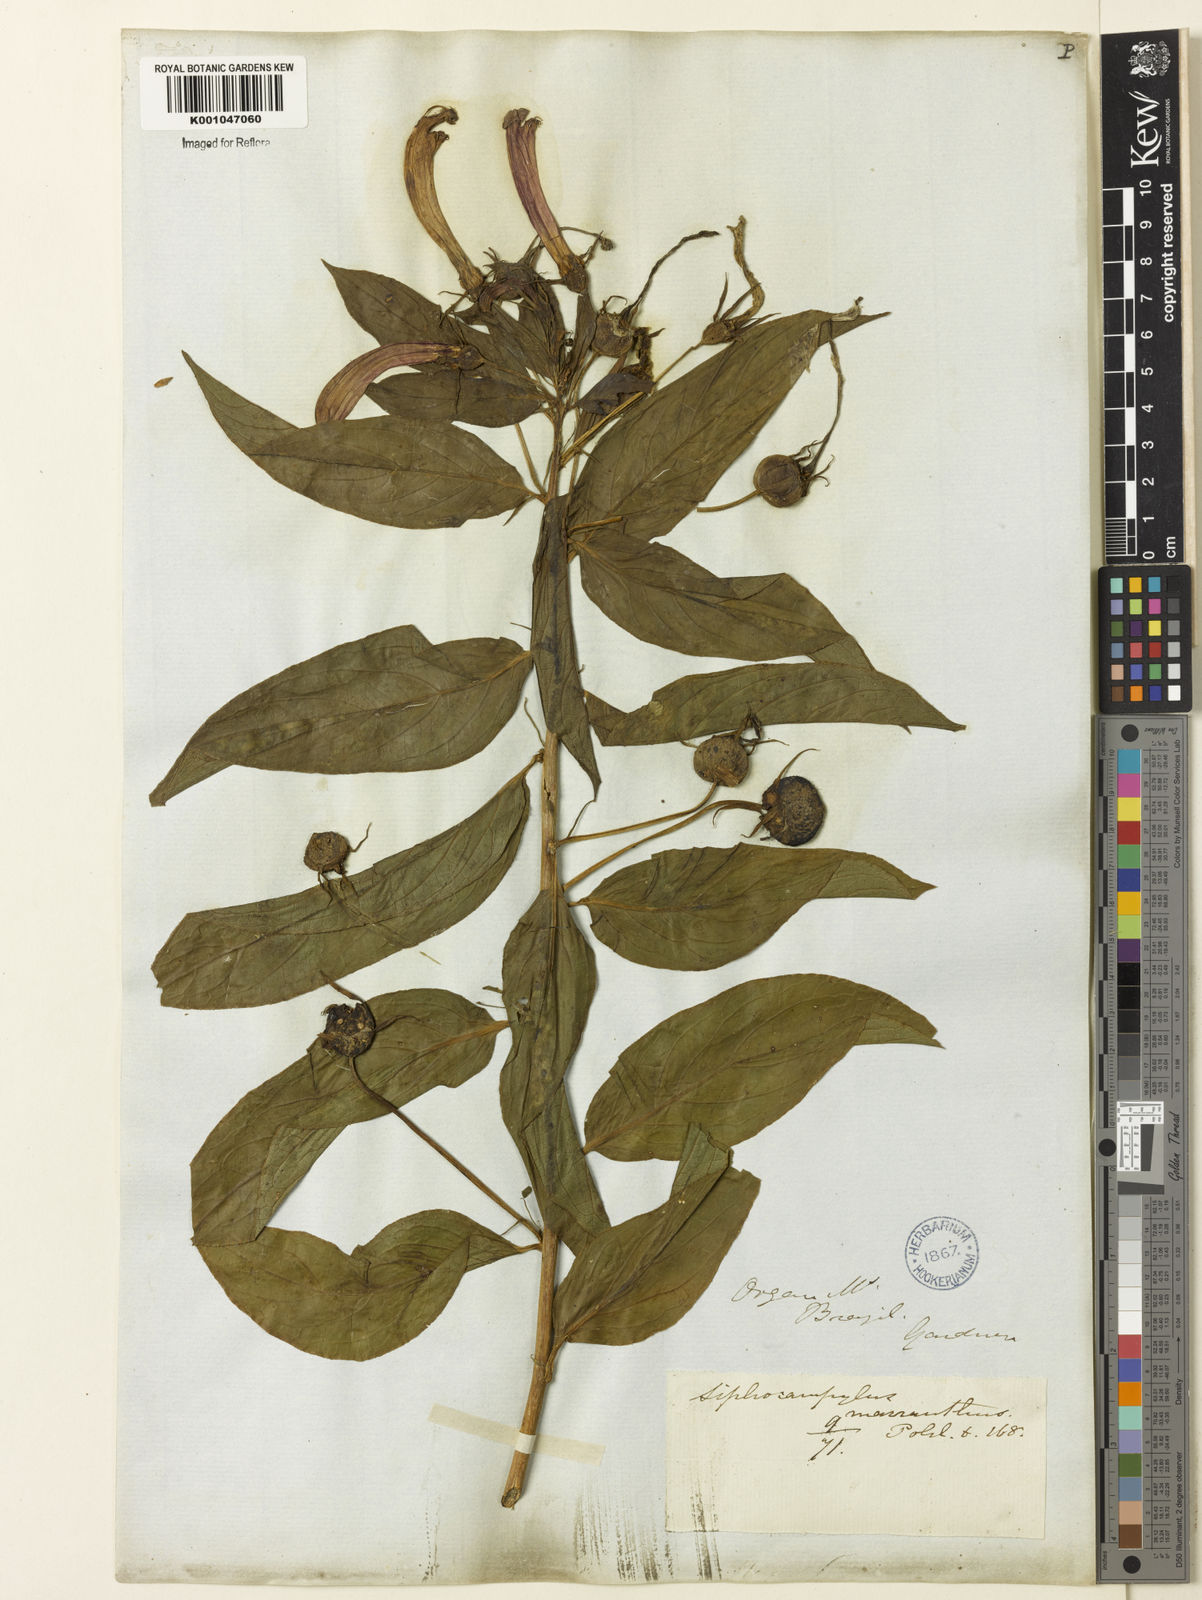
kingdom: Plantae
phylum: Tracheophyta
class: Magnoliopsida
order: Asterales
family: Campanulaceae
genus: Centropogon
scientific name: Centropogon cornutus
